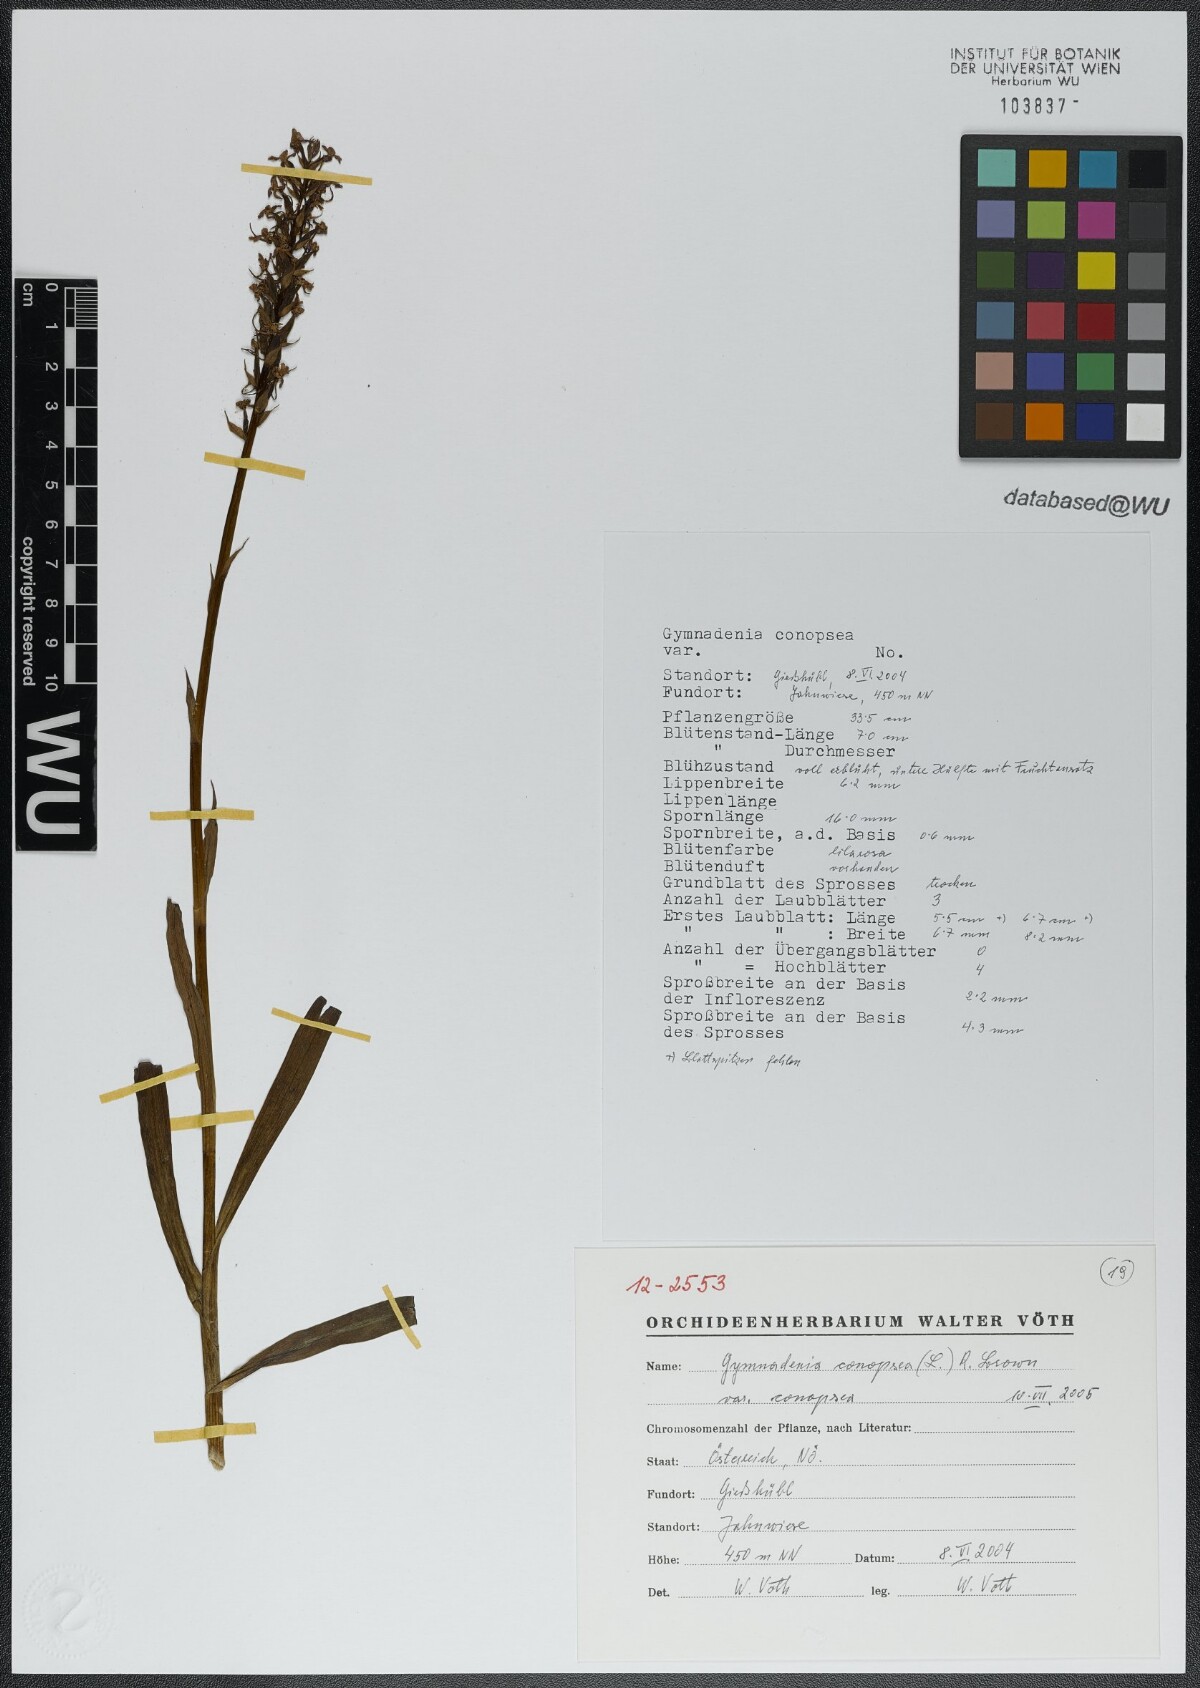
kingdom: Plantae
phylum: Tracheophyta
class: Liliopsida
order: Asparagales
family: Orchidaceae
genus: Gymnadenia
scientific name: Gymnadenia conopsea
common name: Fragrant orchid
